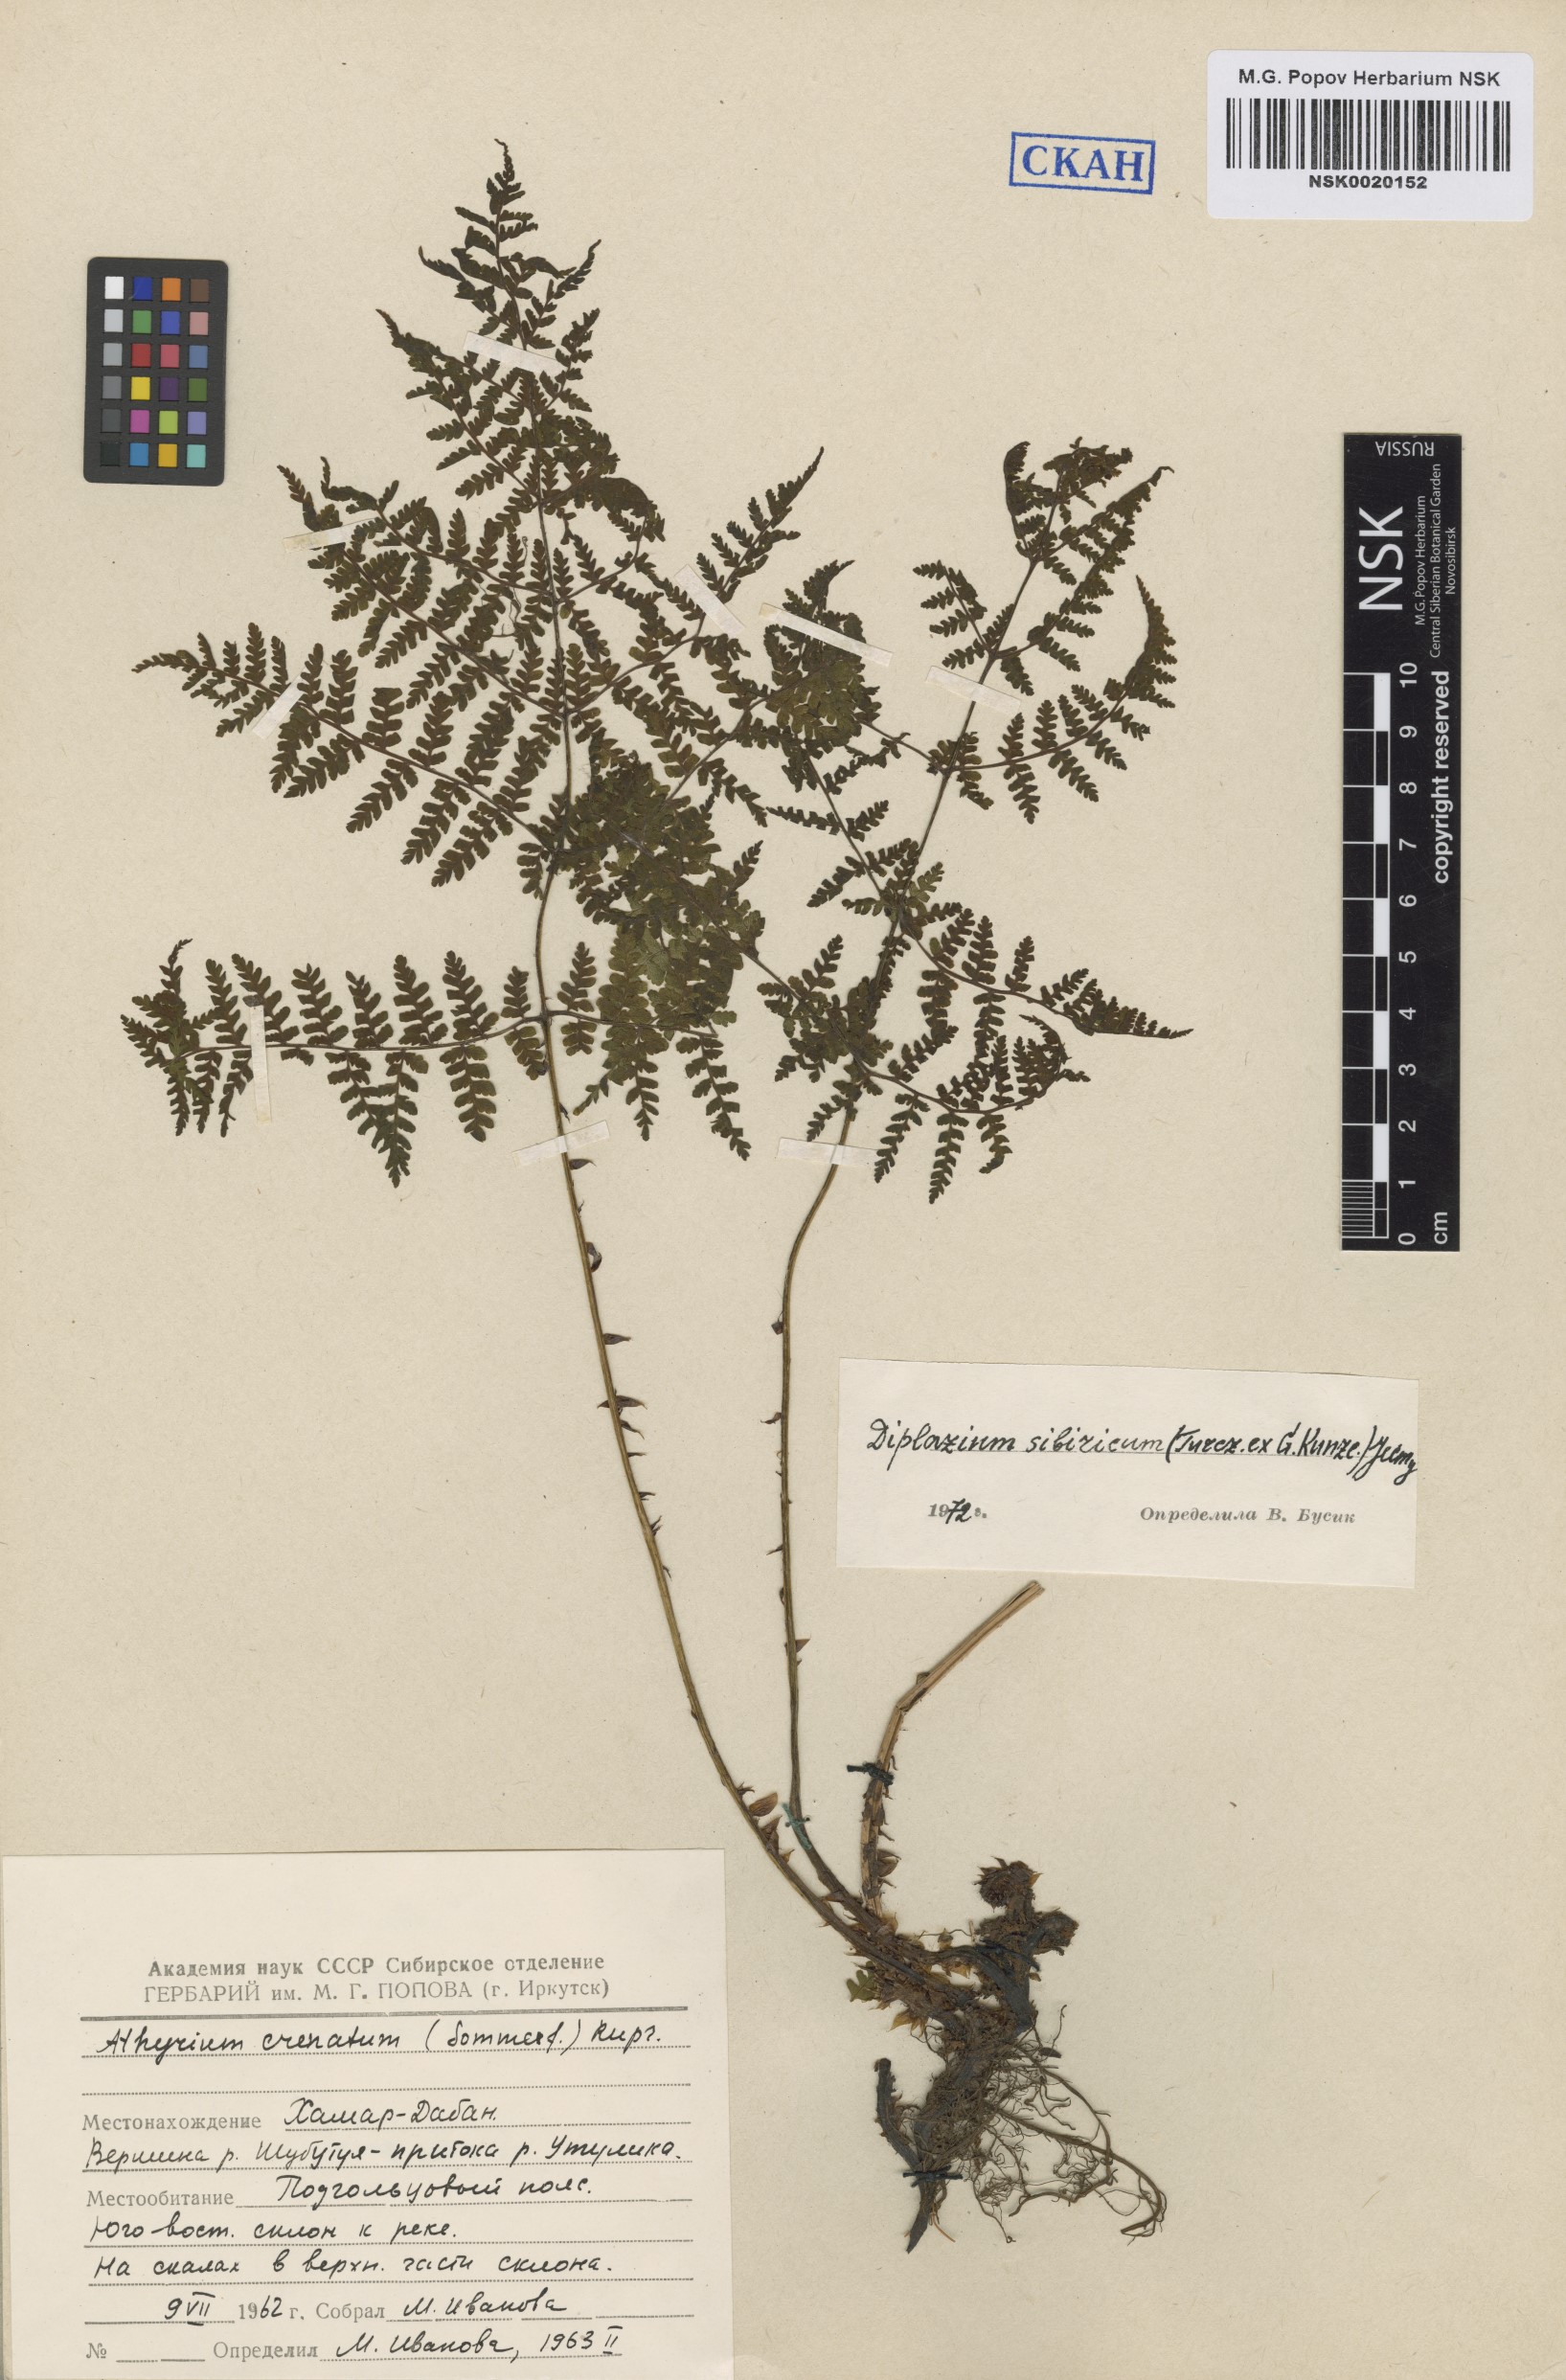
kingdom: Plantae
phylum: Tracheophyta
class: Polypodiopsida
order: Polypodiales
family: Athyriaceae
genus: Diplazium
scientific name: Diplazium sibiricum
